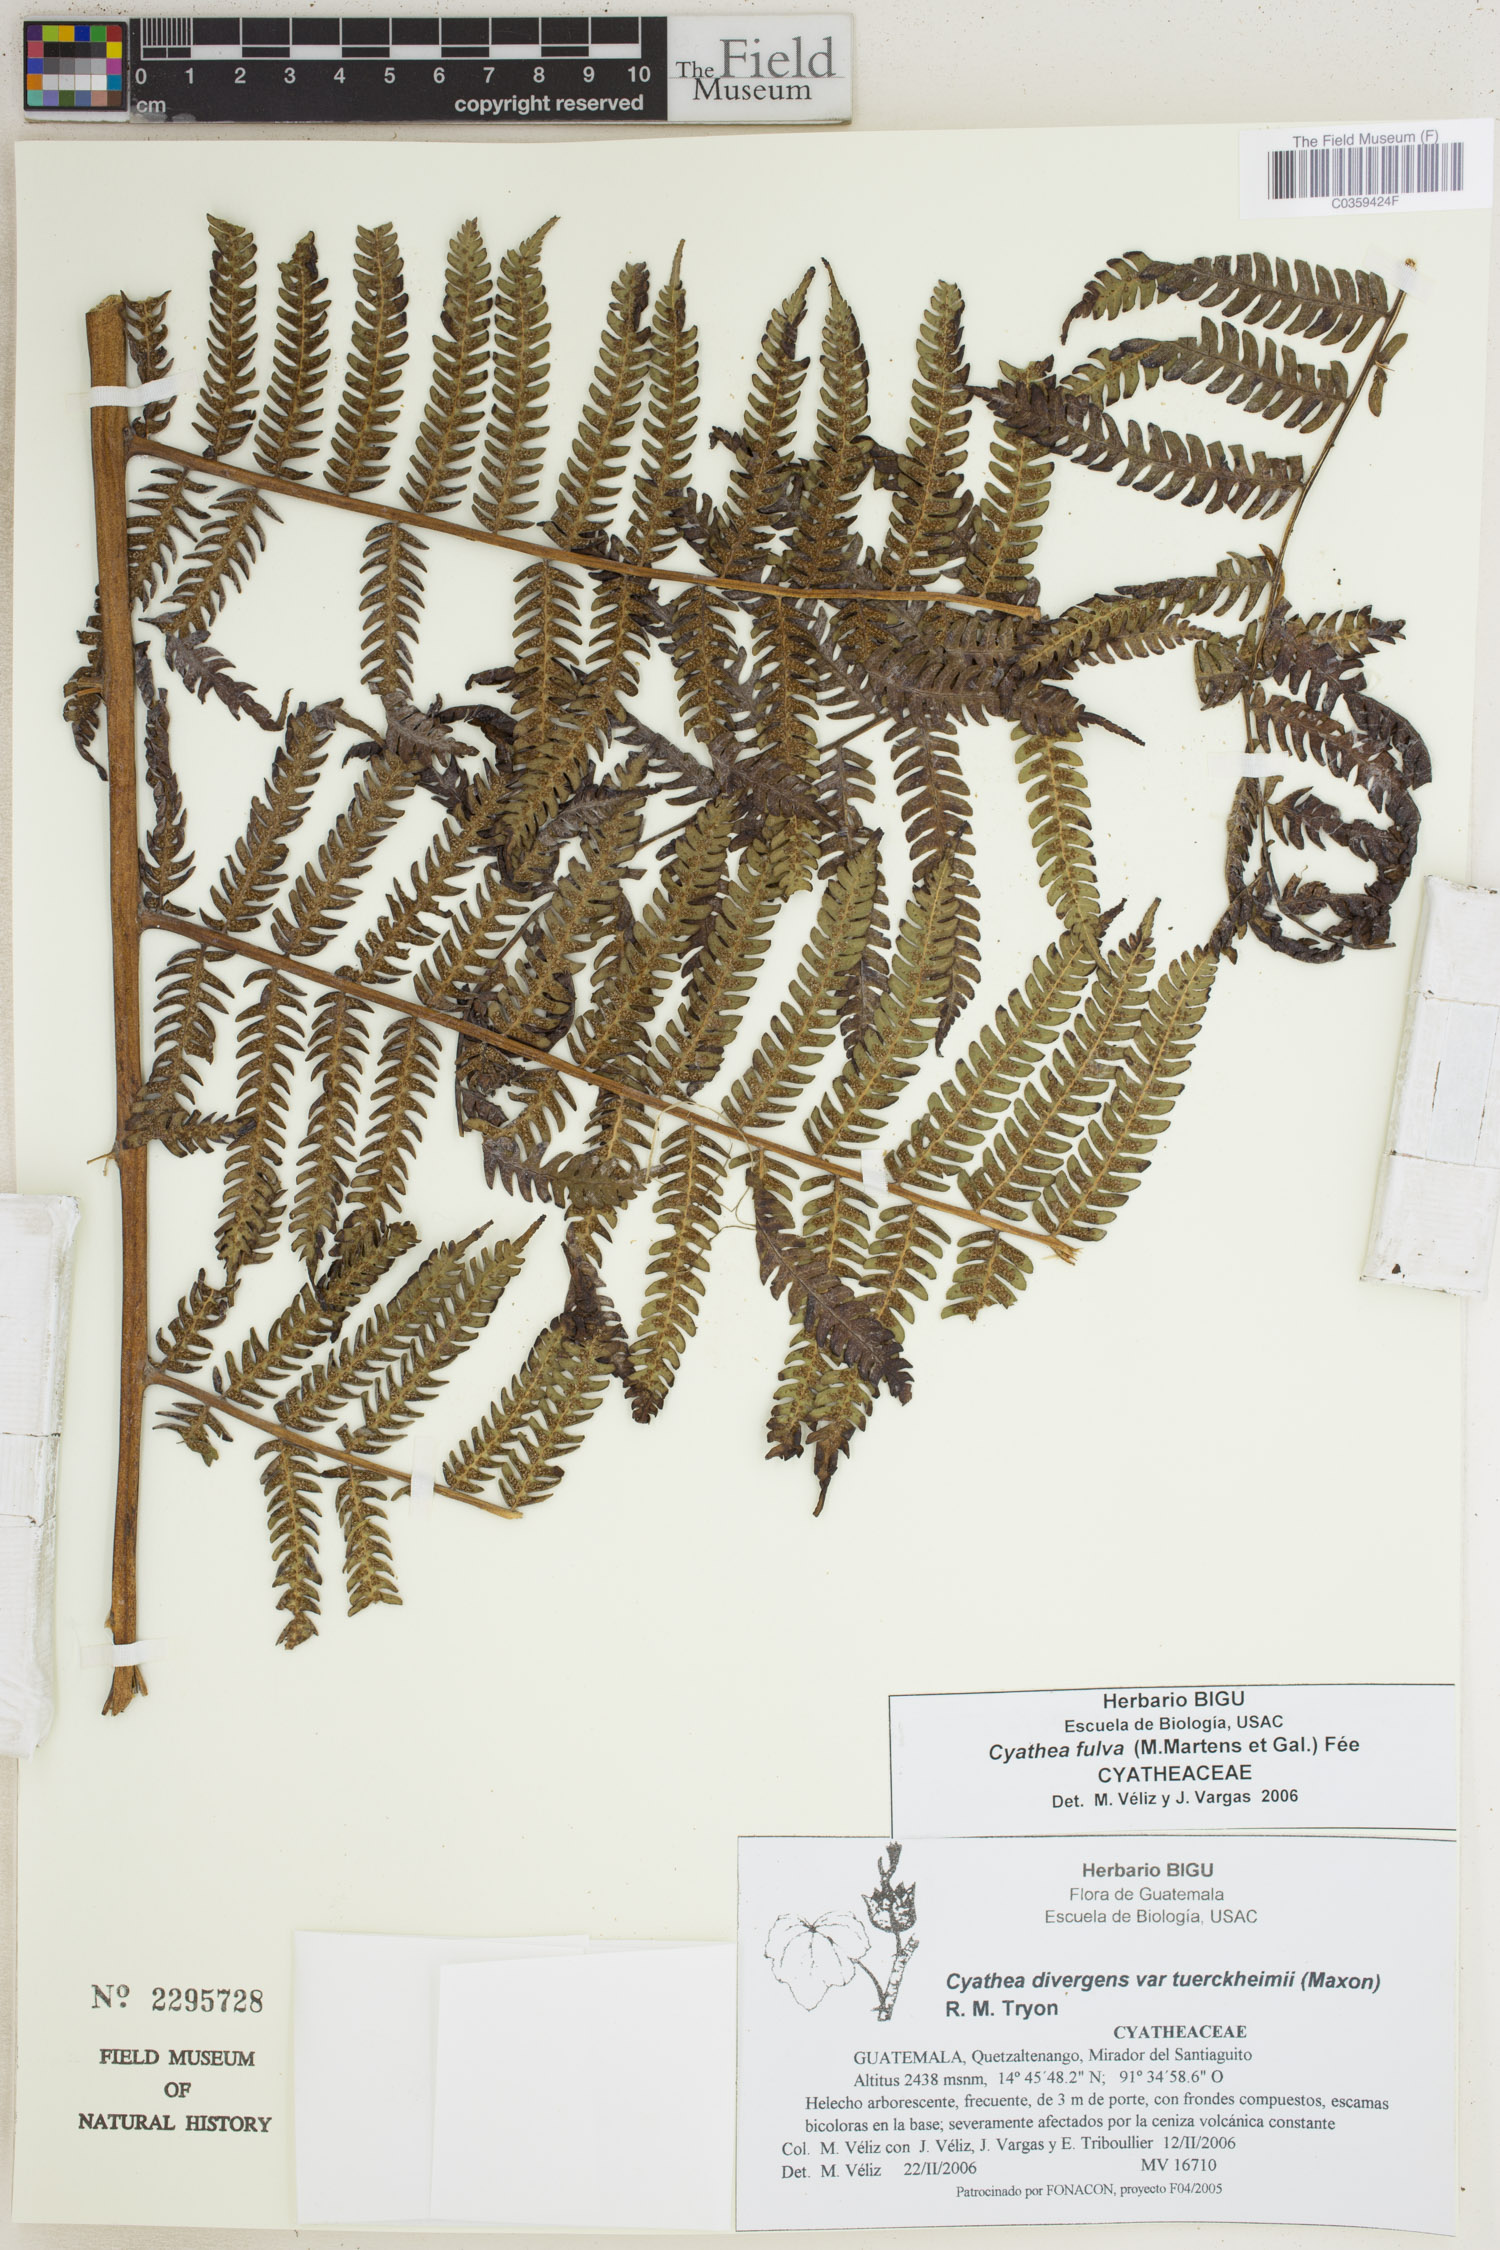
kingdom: Plantae
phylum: Tracheophyta
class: Polypodiopsida
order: Cyatheales
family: Cyatheaceae
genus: Cyathea
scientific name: Cyathea fulva
